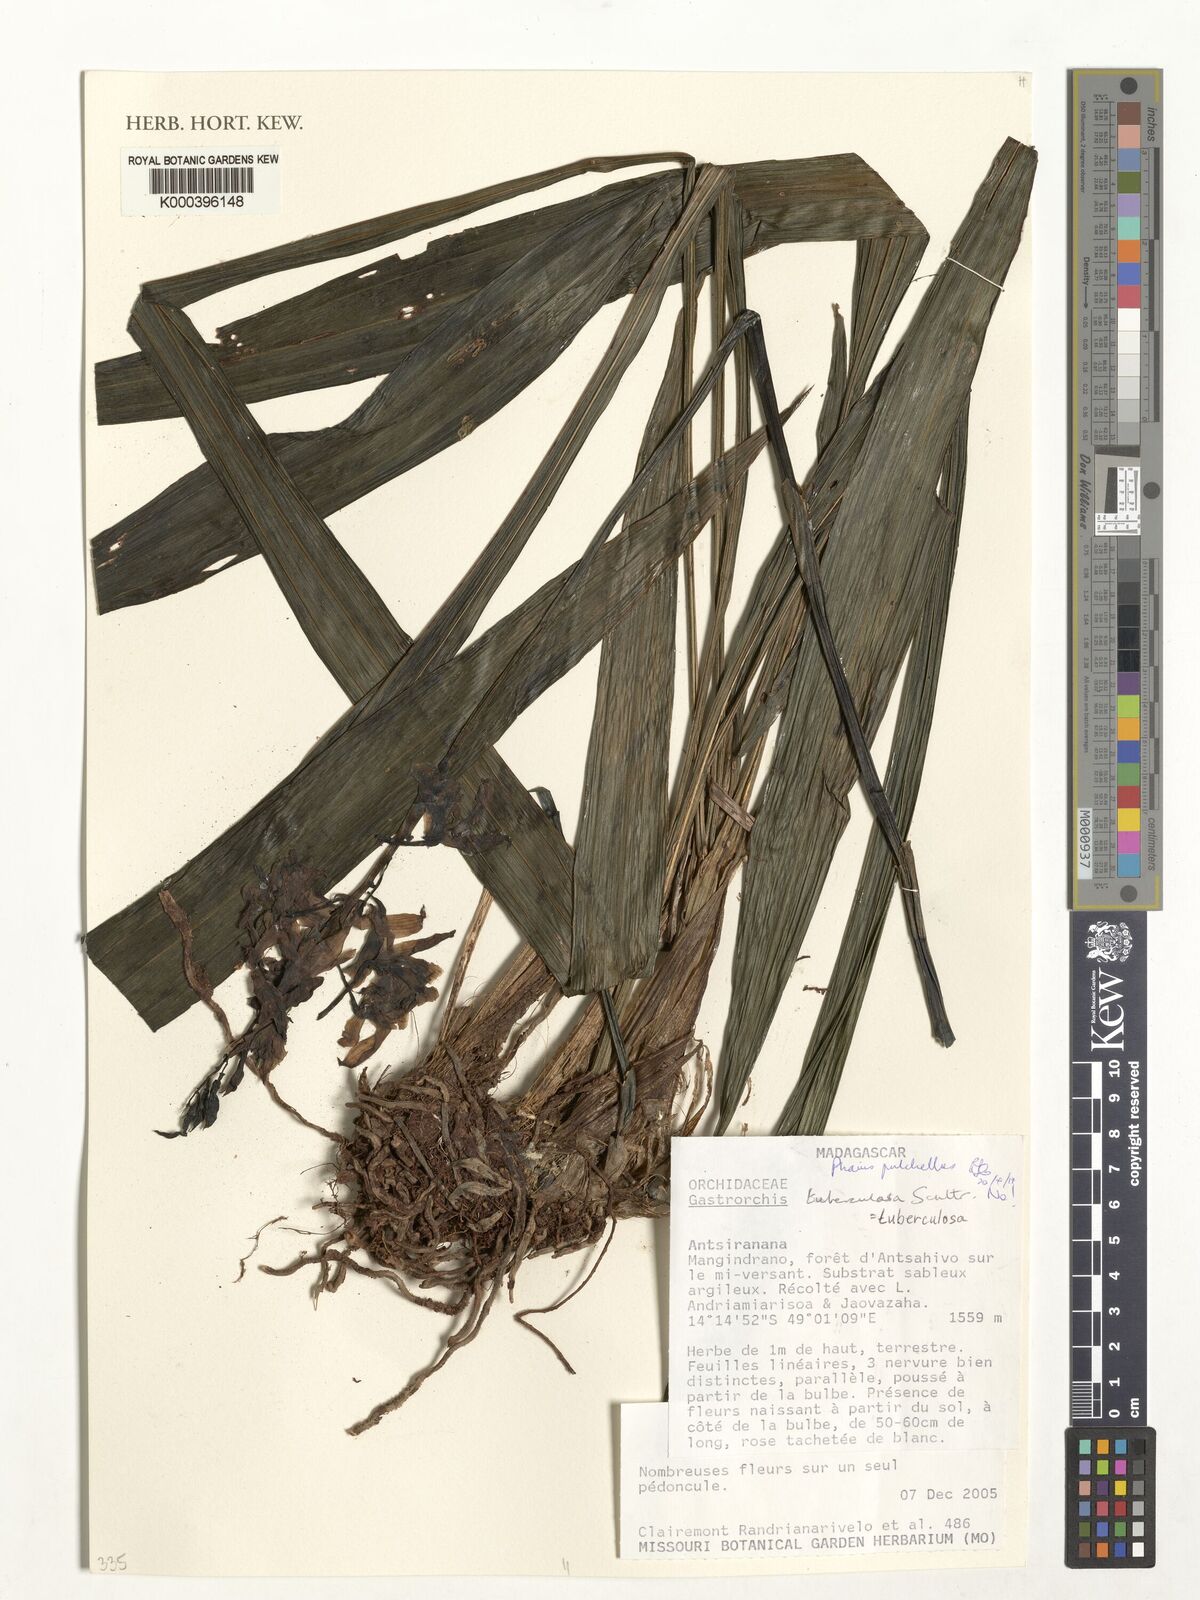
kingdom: Plantae
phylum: Tracheophyta
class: Liliopsida
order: Asparagales
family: Orchidaceae
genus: Calanthe
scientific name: Calanthe tuberculosa
